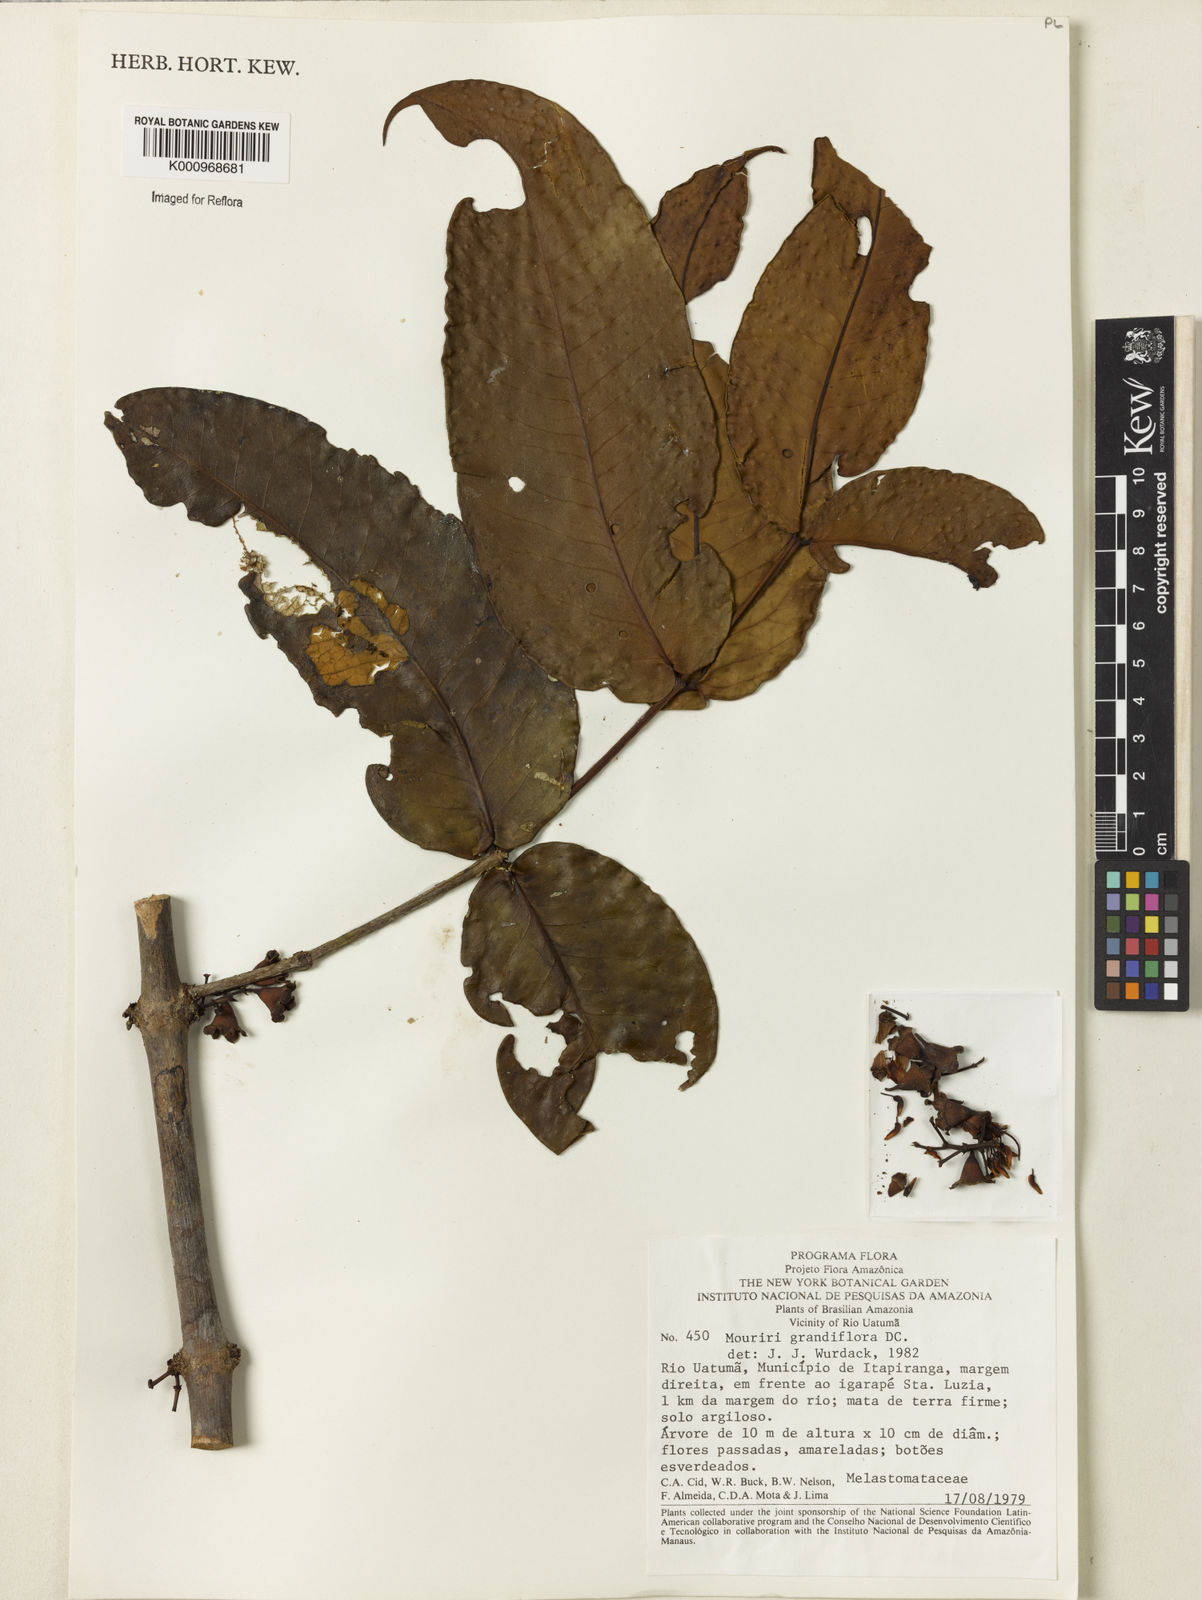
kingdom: Plantae
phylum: Tracheophyta
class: Magnoliopsida
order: Myrtales
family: Melastomataceae
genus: Mouriri
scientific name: Mouriri grandiflora
